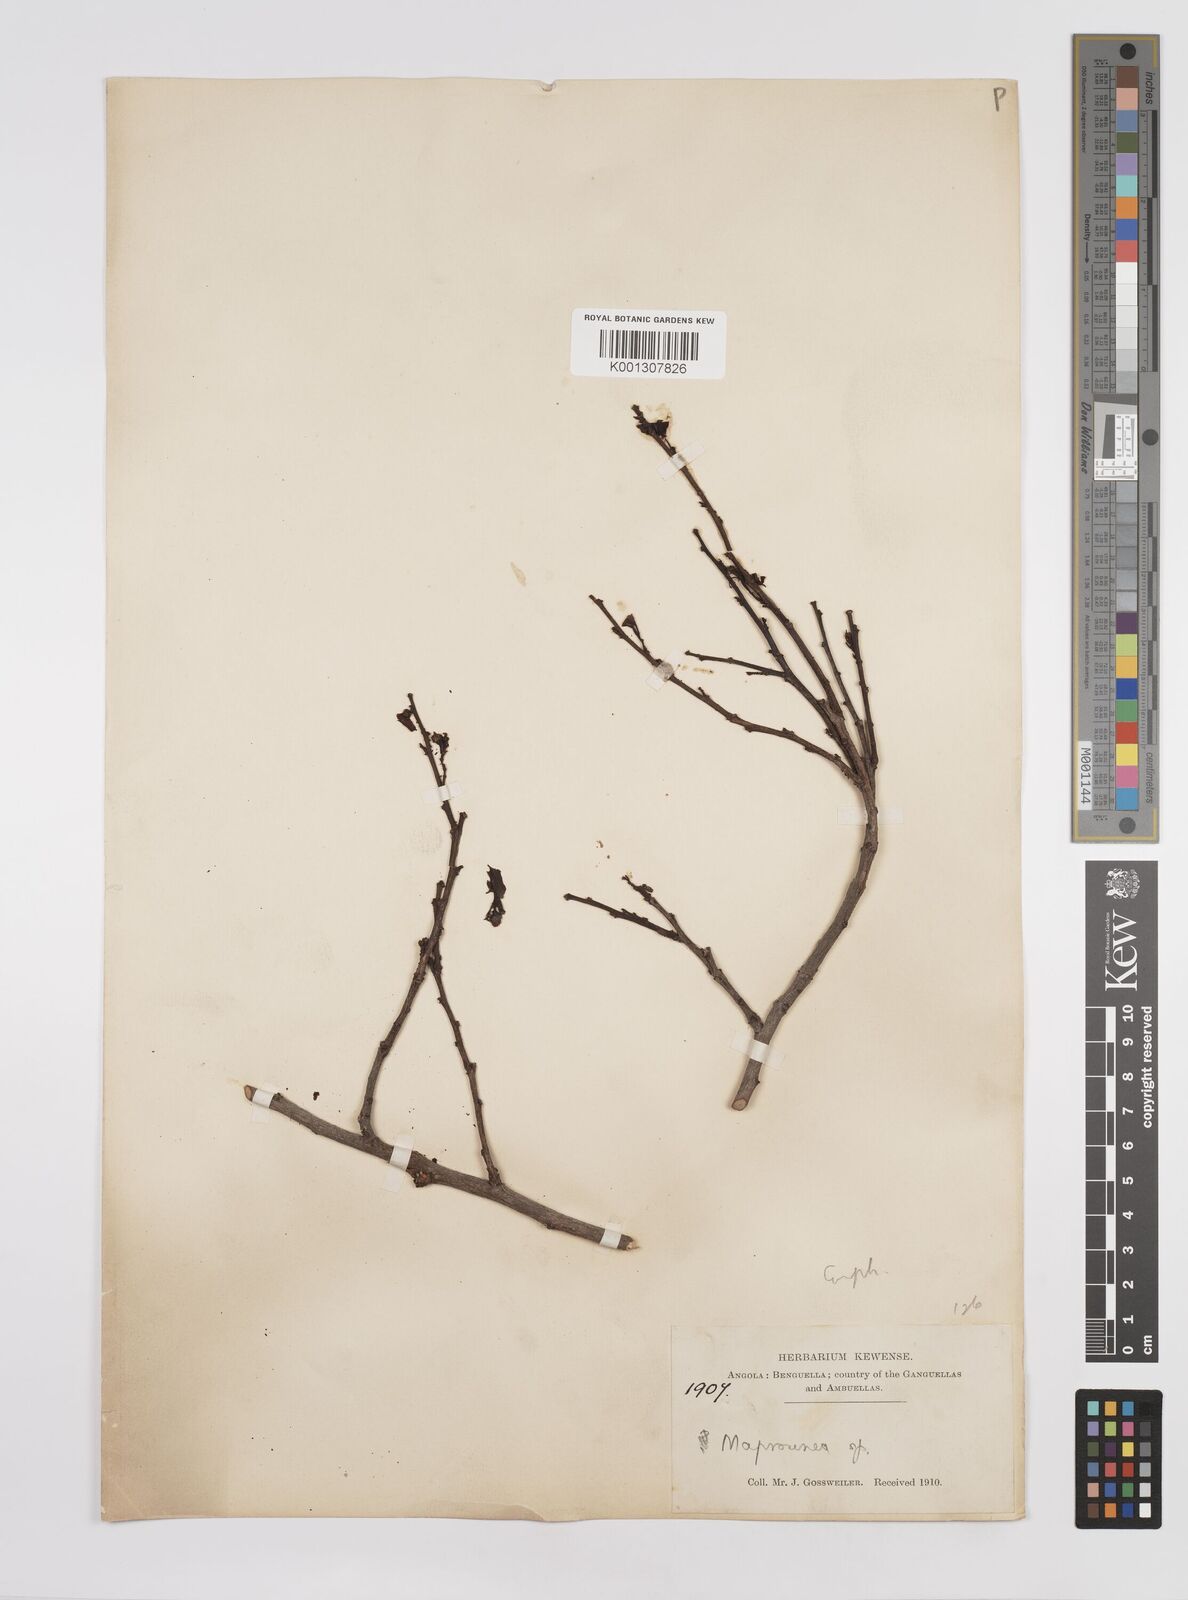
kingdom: Plantae
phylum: Tracheophyta
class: Magnoliopsida
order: Malpighiales
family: Euphorbiaceae
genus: Maprounea
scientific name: Maprounea
